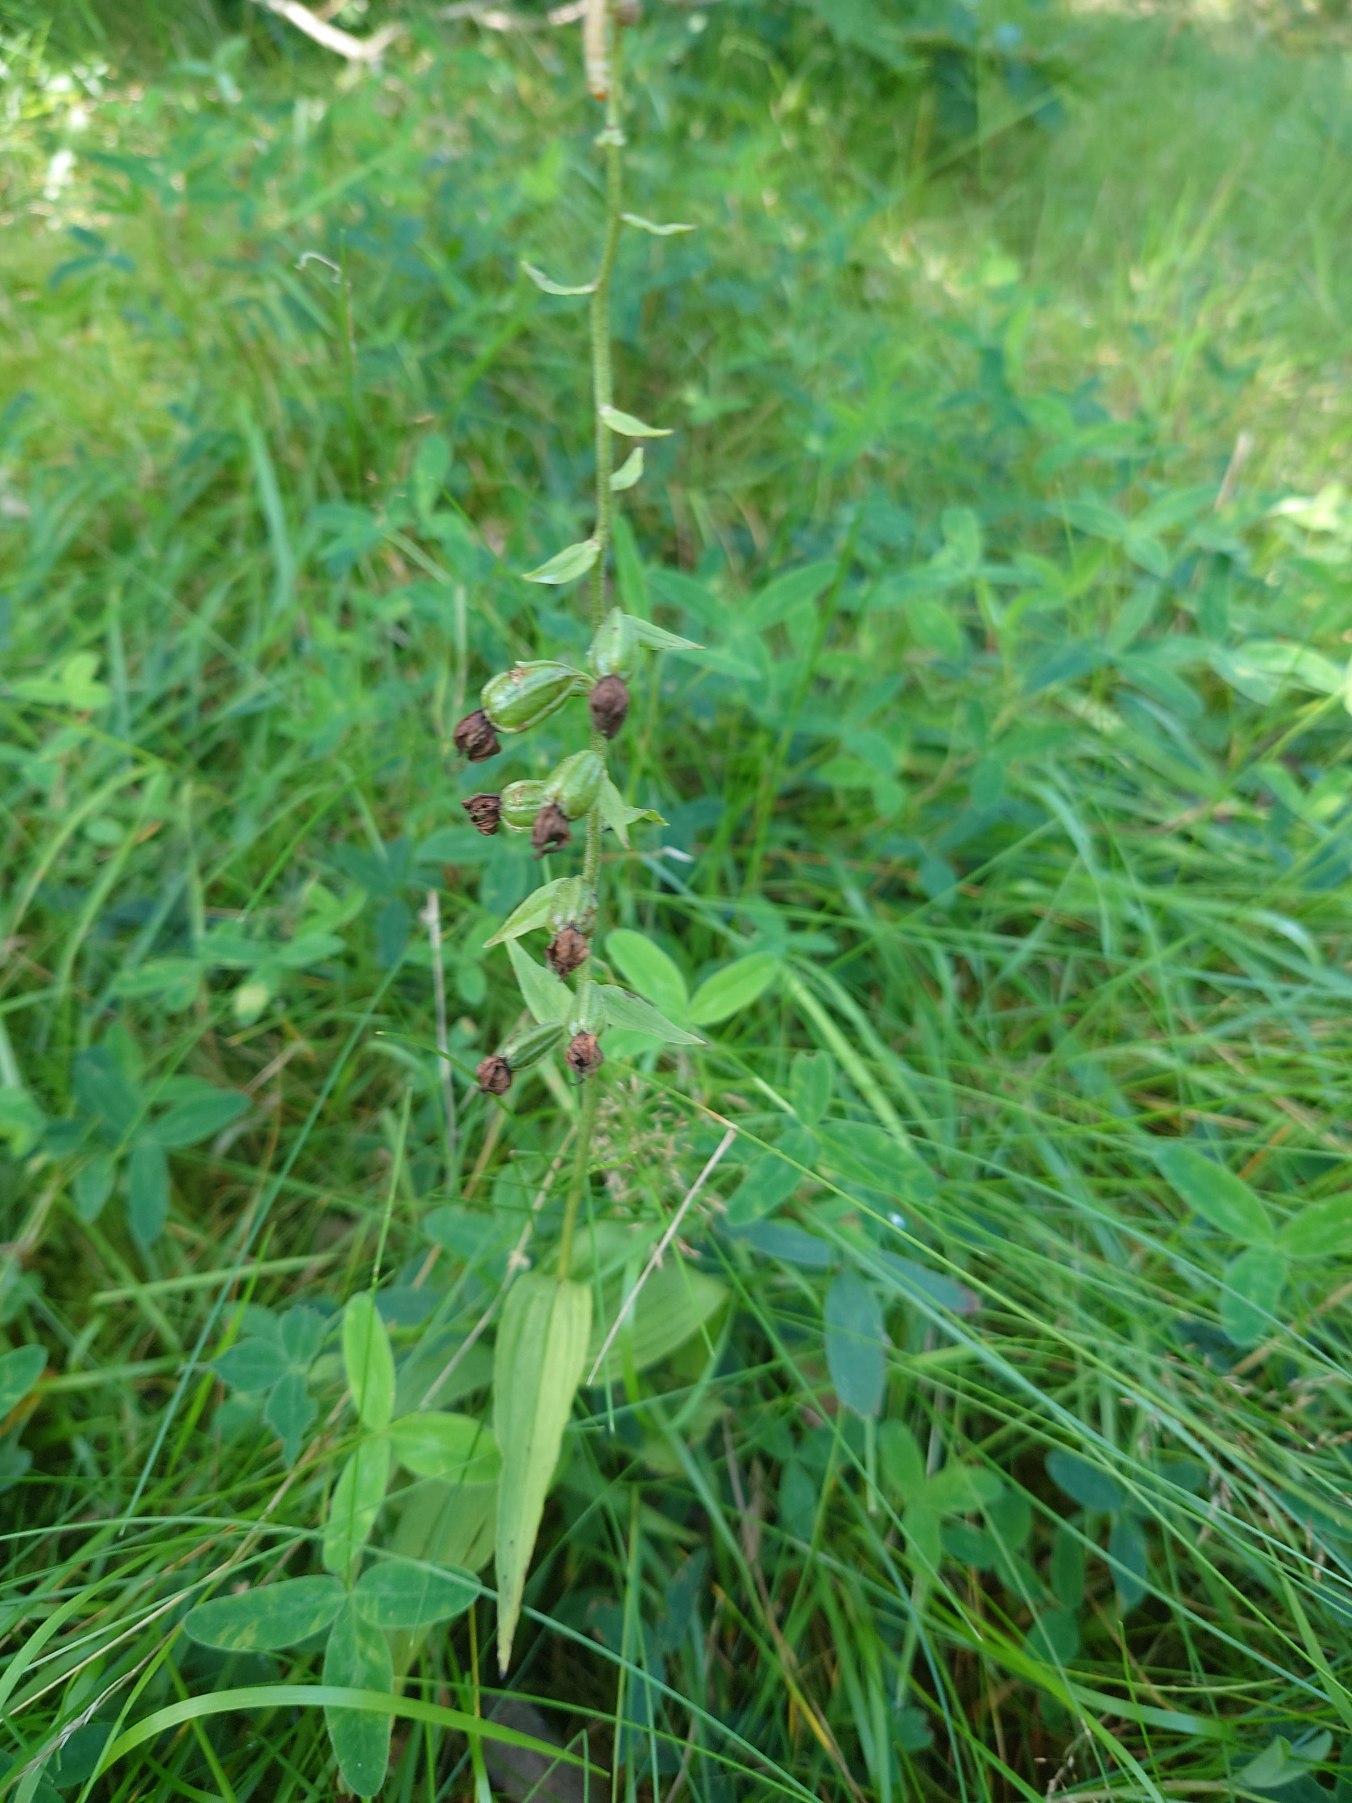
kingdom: Plantae
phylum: Tracheophyta
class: Liliopsida
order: Asparagales
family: Orchidaceae
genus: Epipactis
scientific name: Epipactis helleborine
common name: Skov-hullæbe
